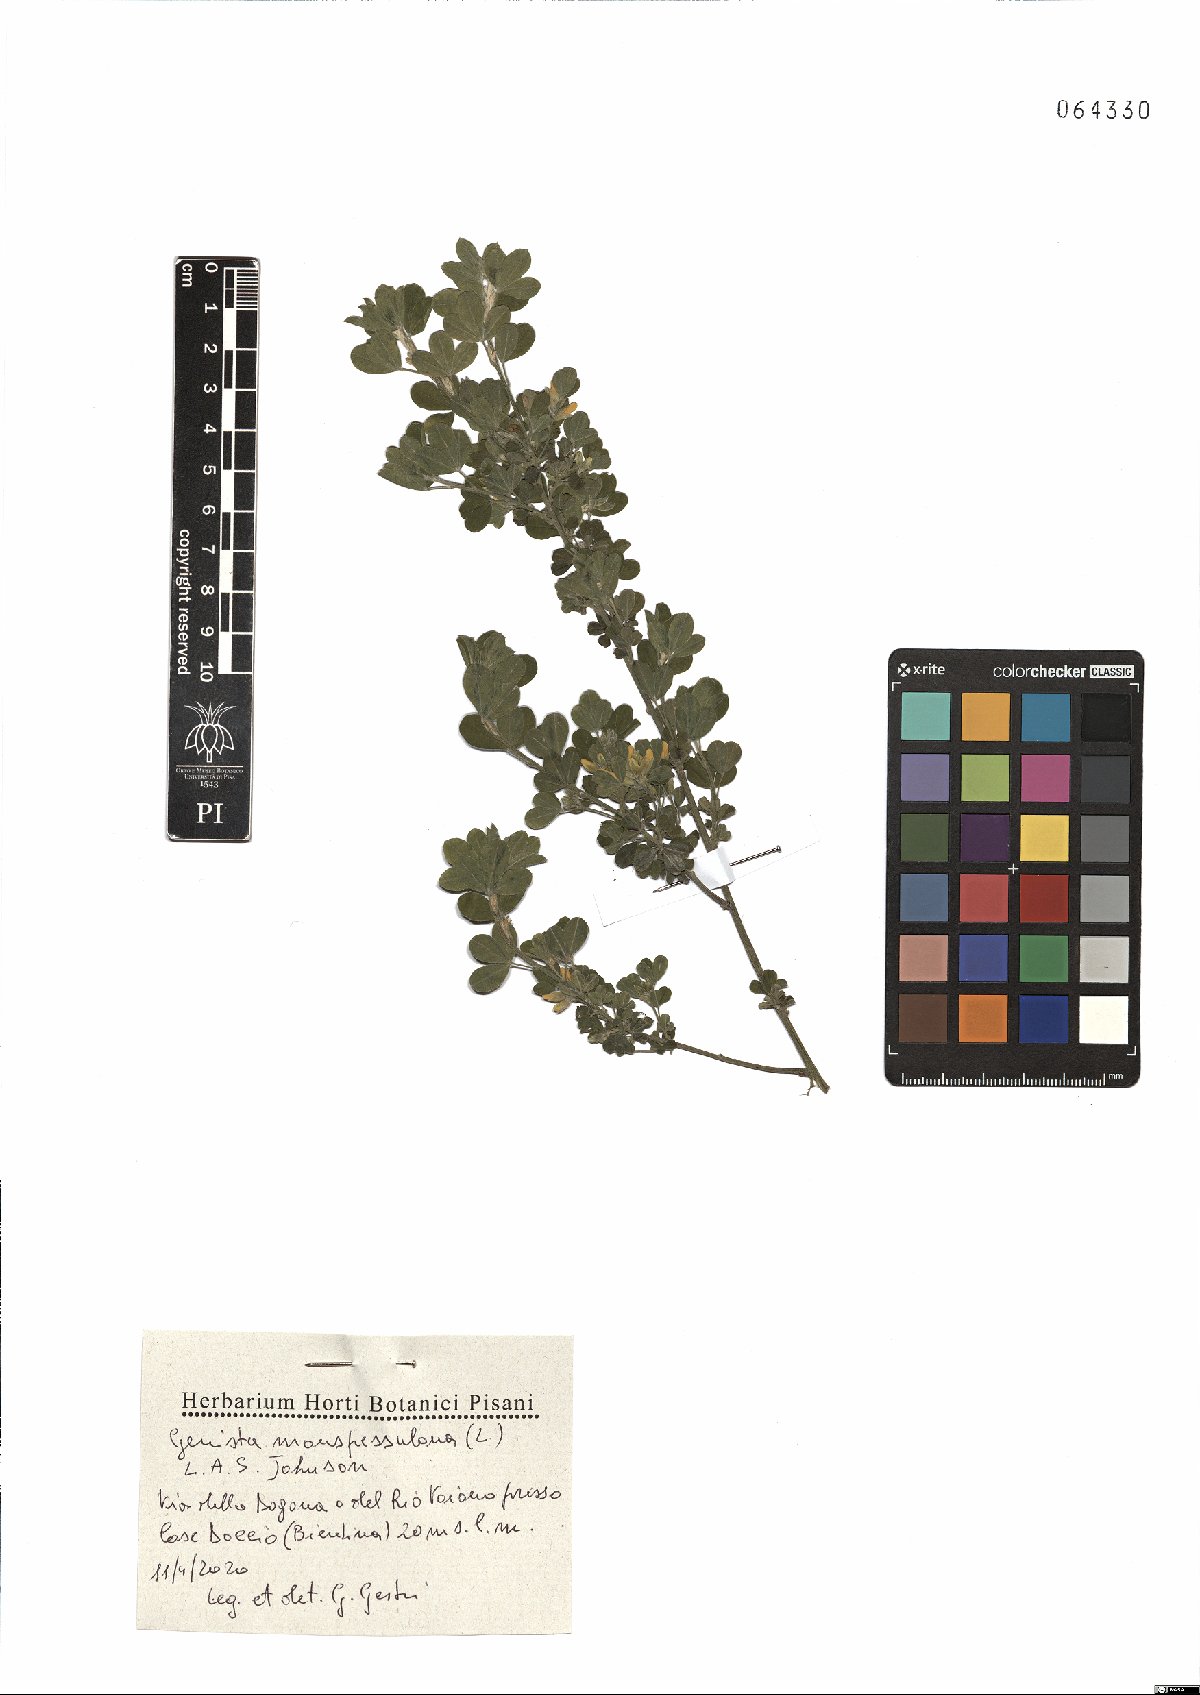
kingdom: Plantae
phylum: Tracheophyta
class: Magnoliopsida
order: Fabales
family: Fabaceae
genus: Genista
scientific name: Genista monspessulana
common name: Montpellier broom
